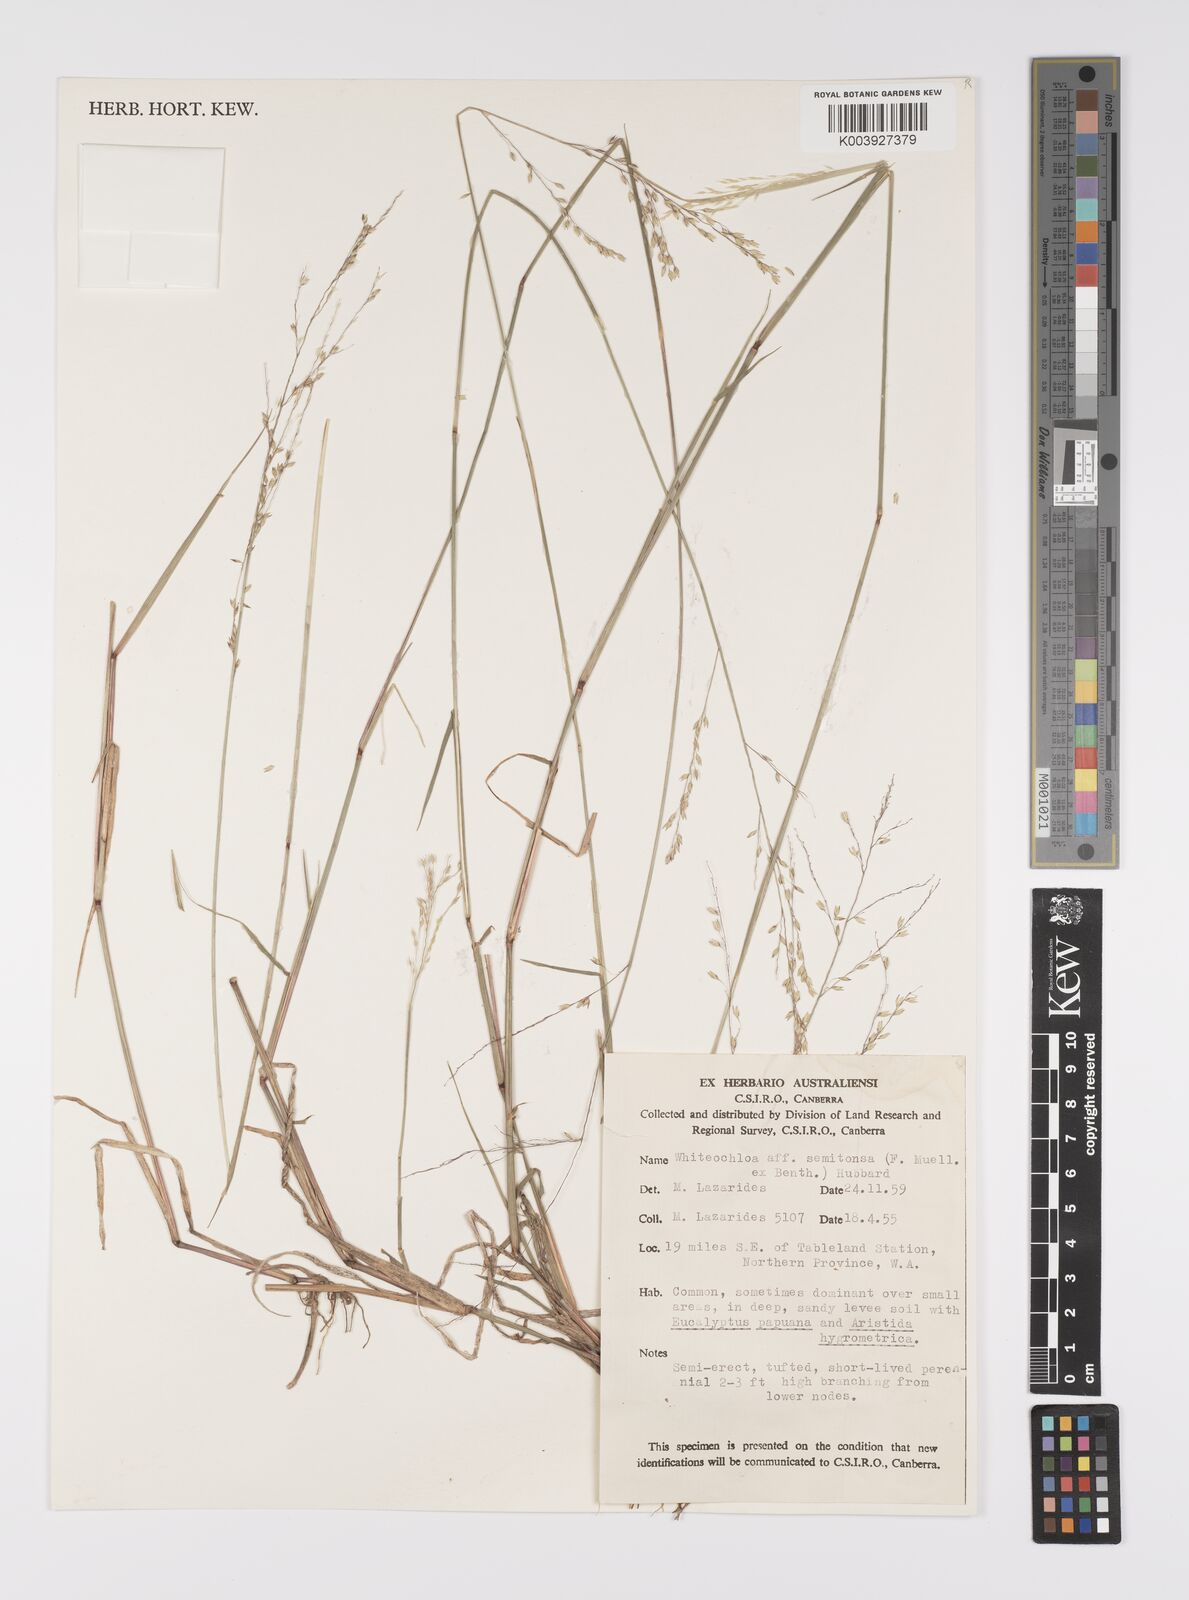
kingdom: Plantae
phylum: Tracheophyta
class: Liliopsida
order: Poales
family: Poaceae
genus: Whiteochloa
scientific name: Whiteochloa semitonsa
